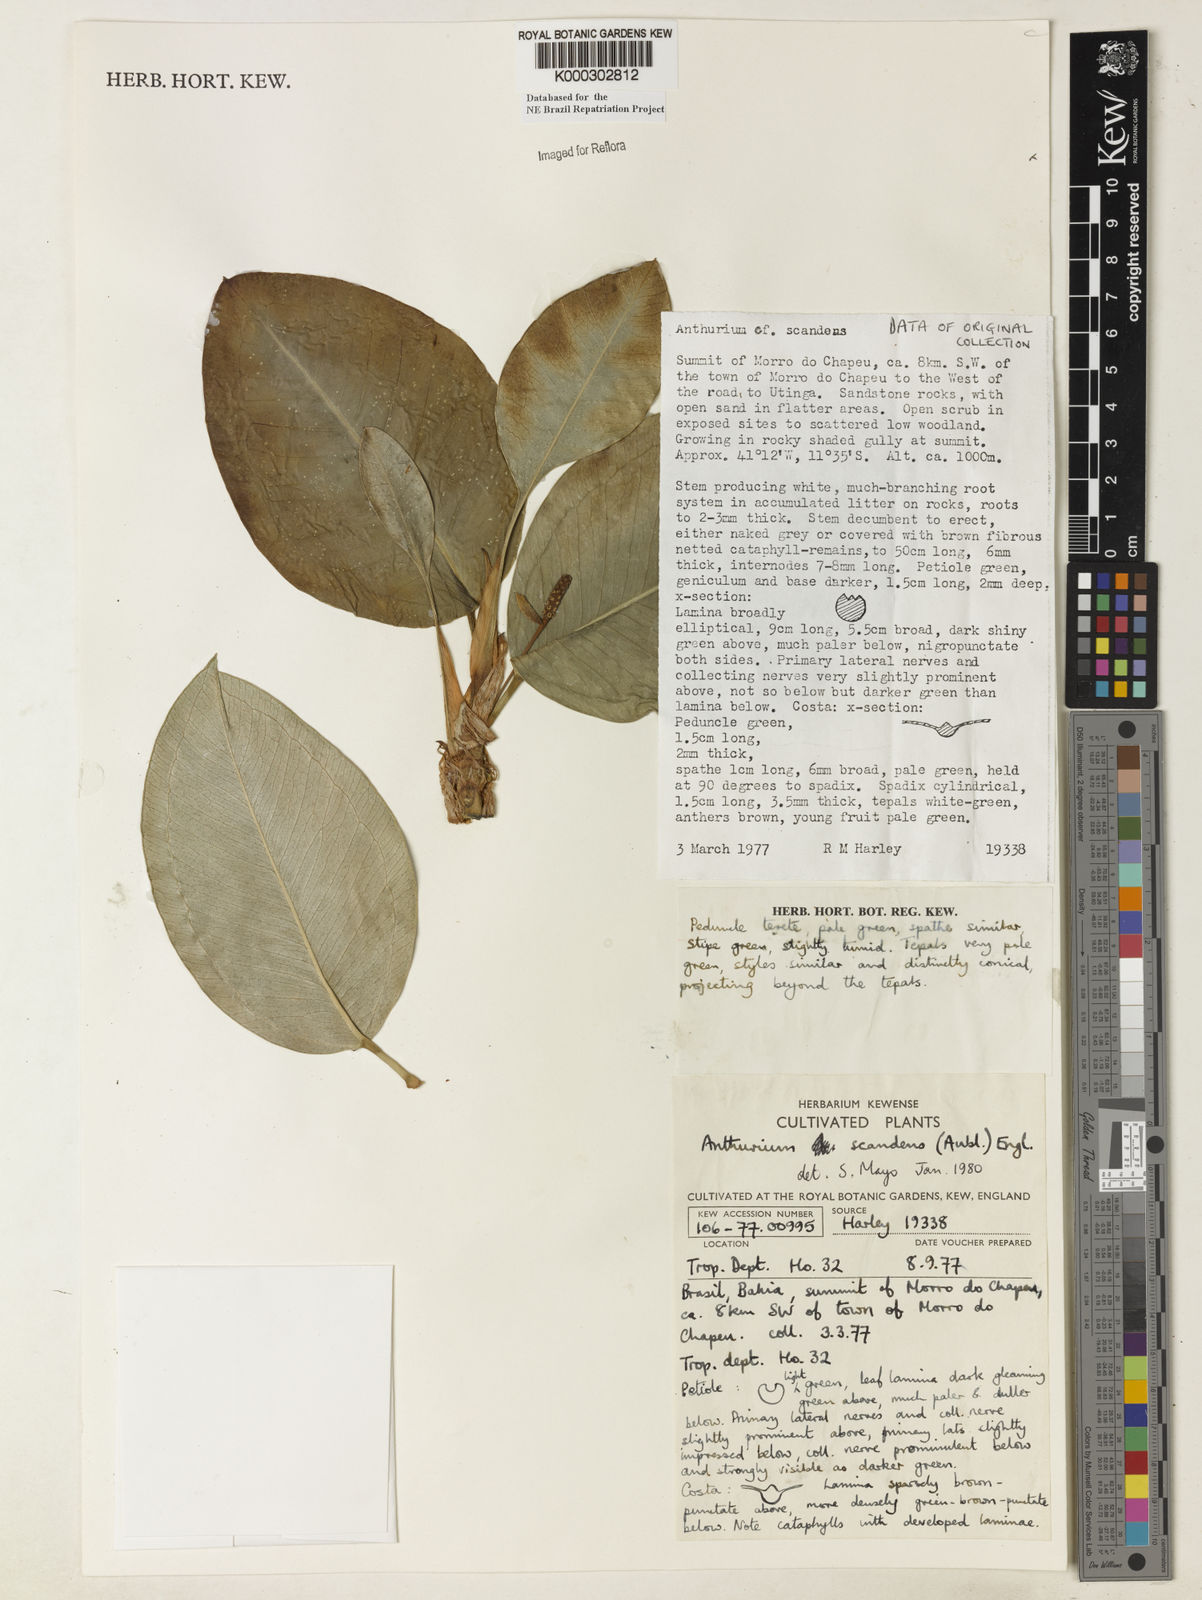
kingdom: Plantae
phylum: Tracheophyta
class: Liliopsida
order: Alismatales
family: Araceae
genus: Anthurium
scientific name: Anthurium scandens
